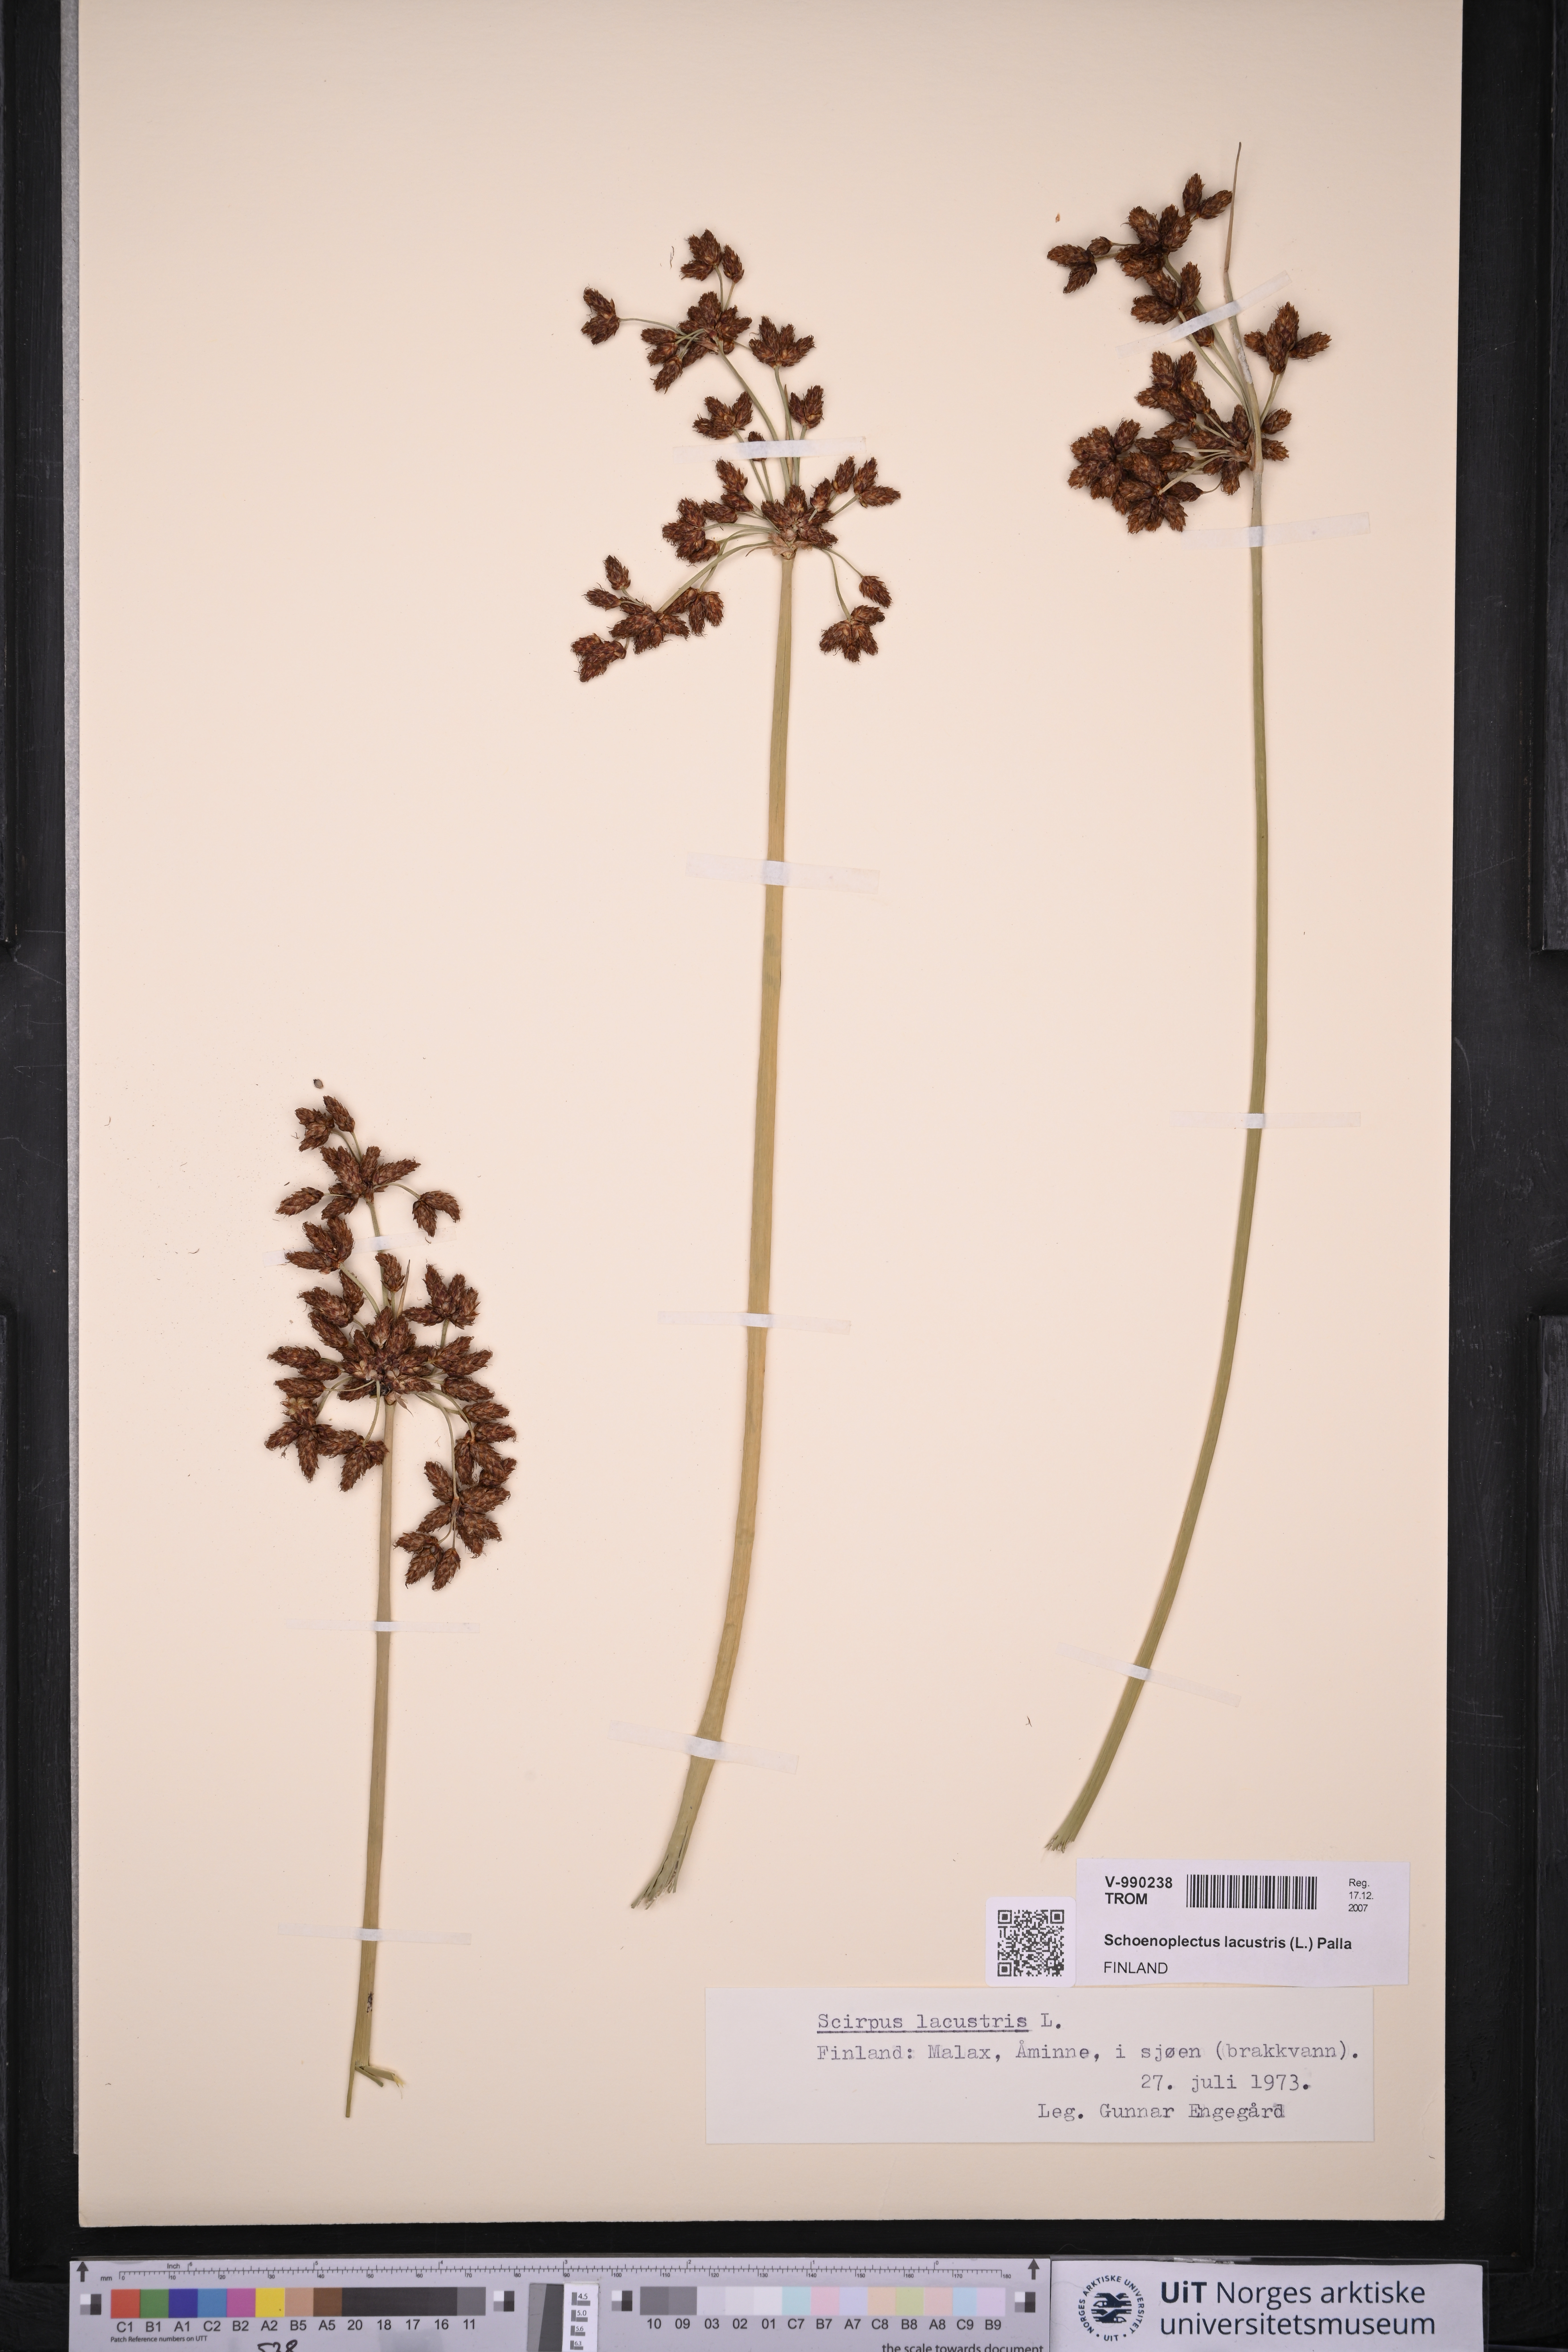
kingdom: Plantae
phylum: Tracheophyta
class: Liliopsida
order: Poales
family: Cyperaceae
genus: Schoenoplectus
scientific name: Schoenoplectus lacustris
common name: Common club-rush
